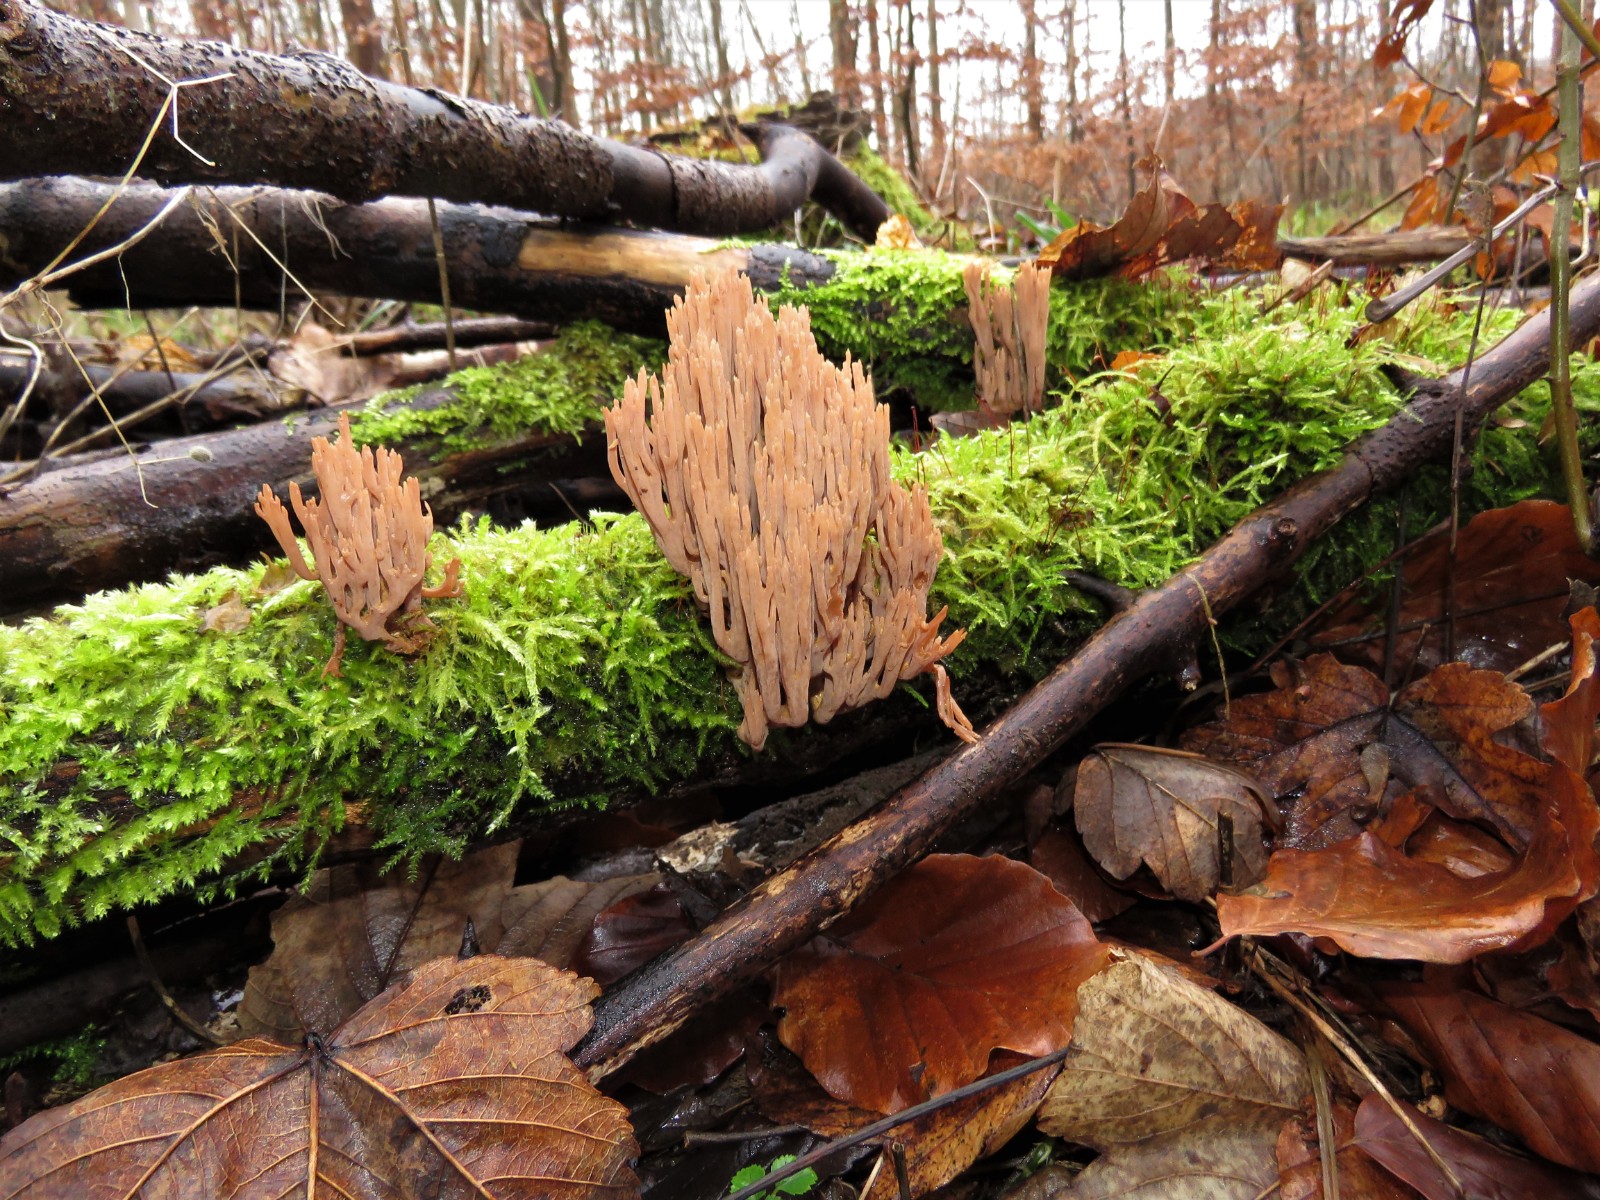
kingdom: Fungi
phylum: Basidiomycota
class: Agaricomycetes
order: Gomphales
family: Gomphaceae
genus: Ramaria
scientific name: Ramaria stricta
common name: rank koralsvamp
